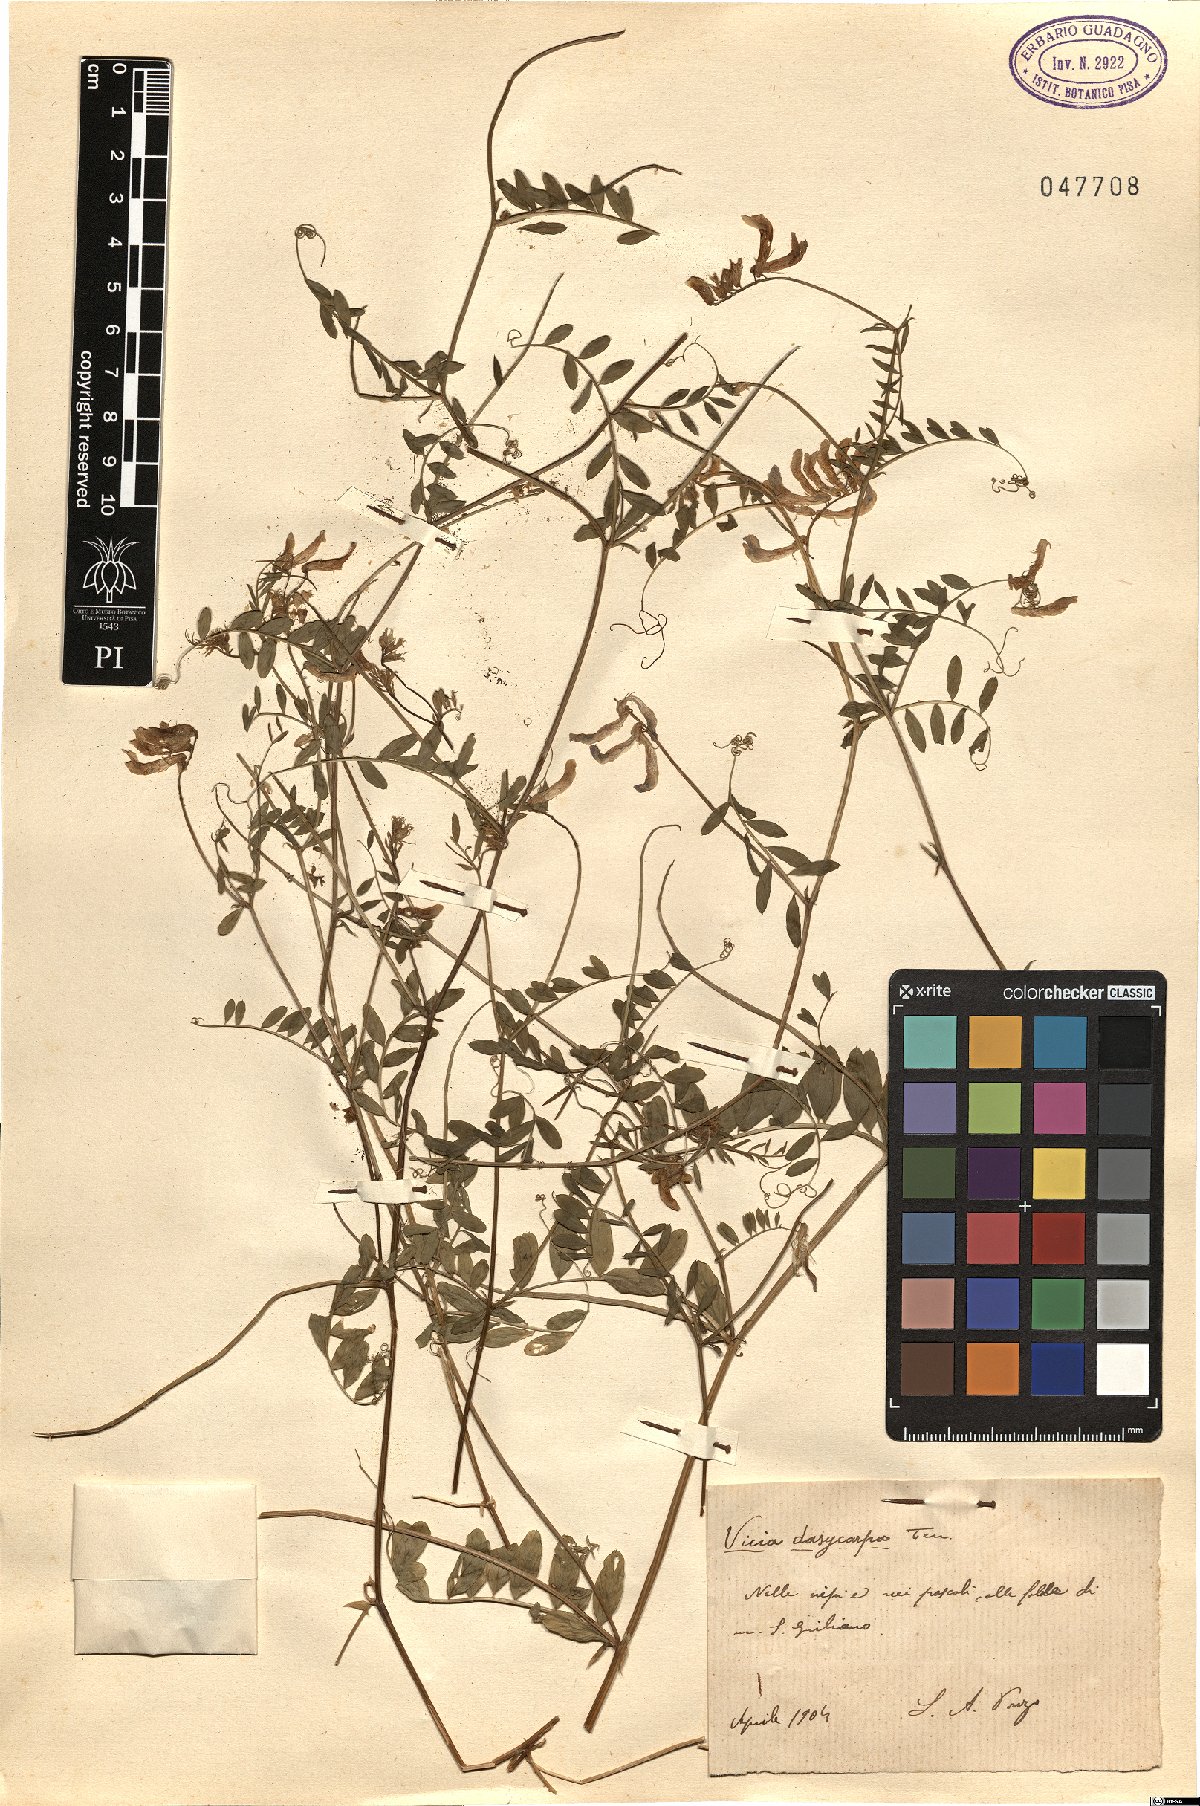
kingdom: Plantae
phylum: Tracheophyta
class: Magnoliopsida
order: Fabales
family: Fabaceae
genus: Vicia
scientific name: Vicia villosa
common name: Fodder vetch
